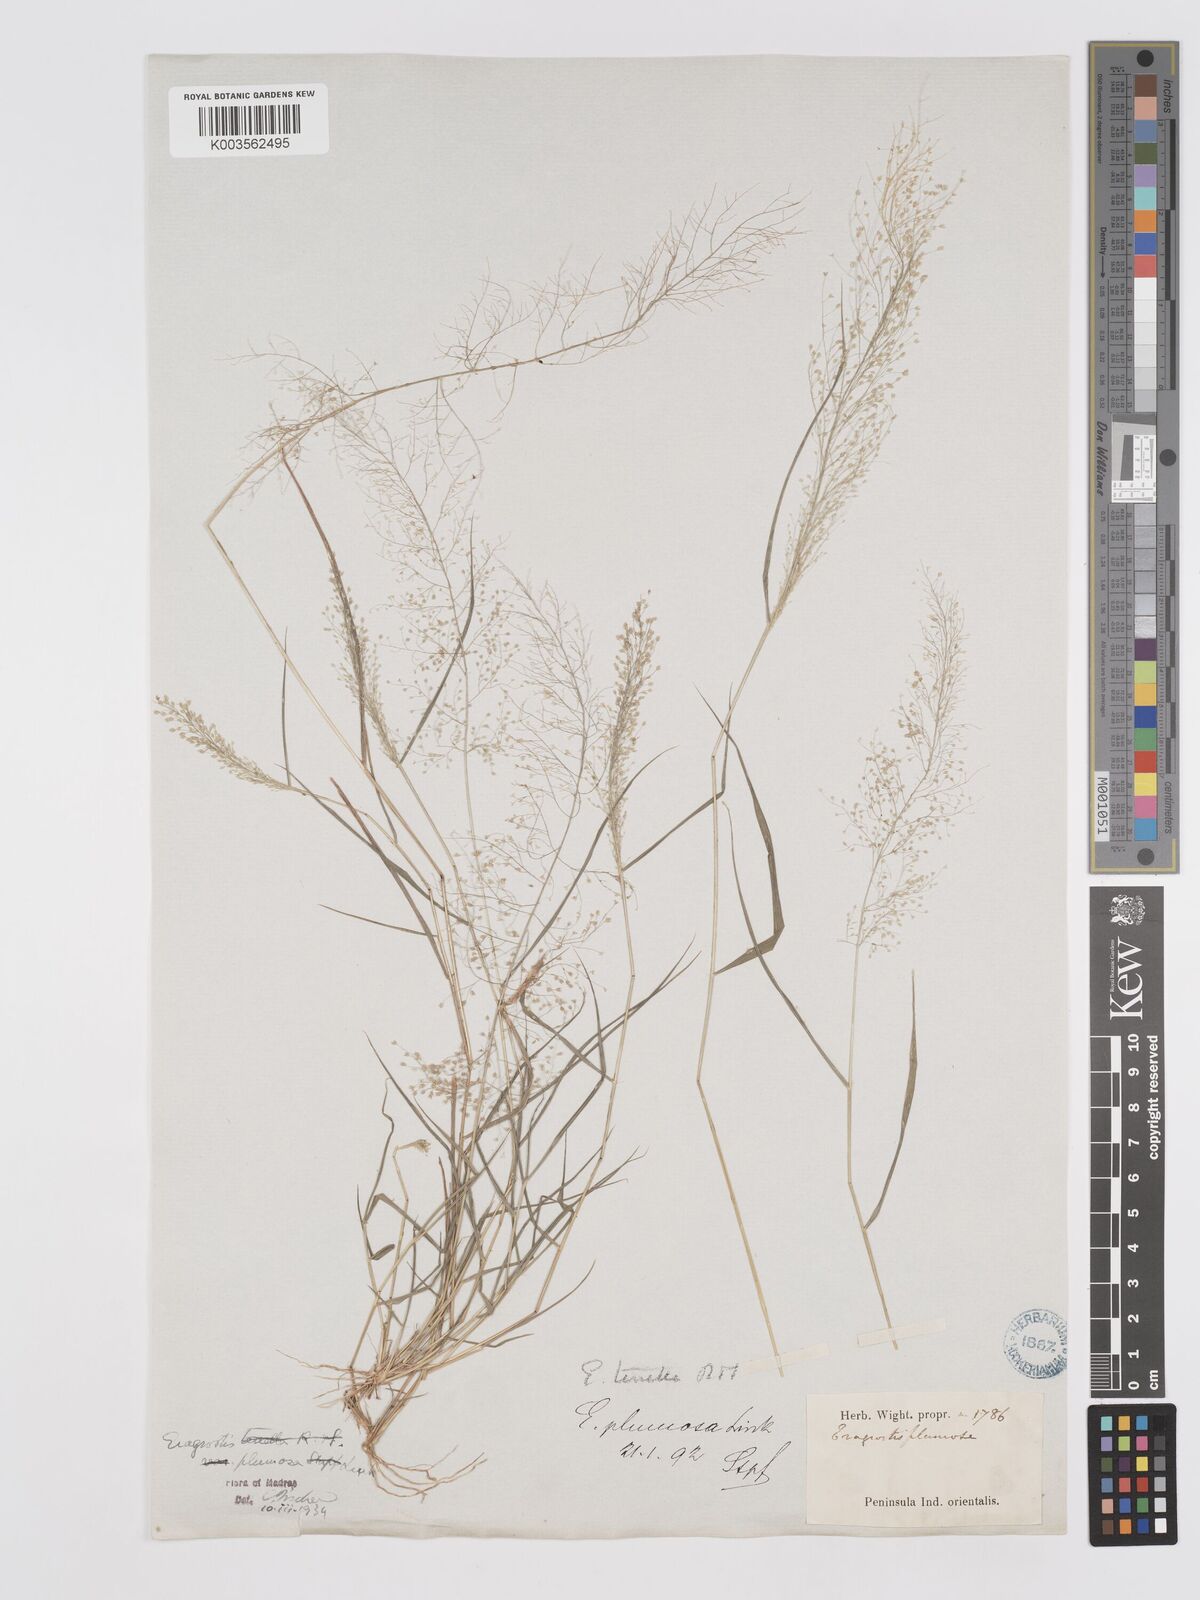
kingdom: Plantae
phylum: Tracheophyta
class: Liliopsida
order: Poales
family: Poaceae
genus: Eragrostis
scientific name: Eragrostis tenella
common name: Japanese lovegrass
